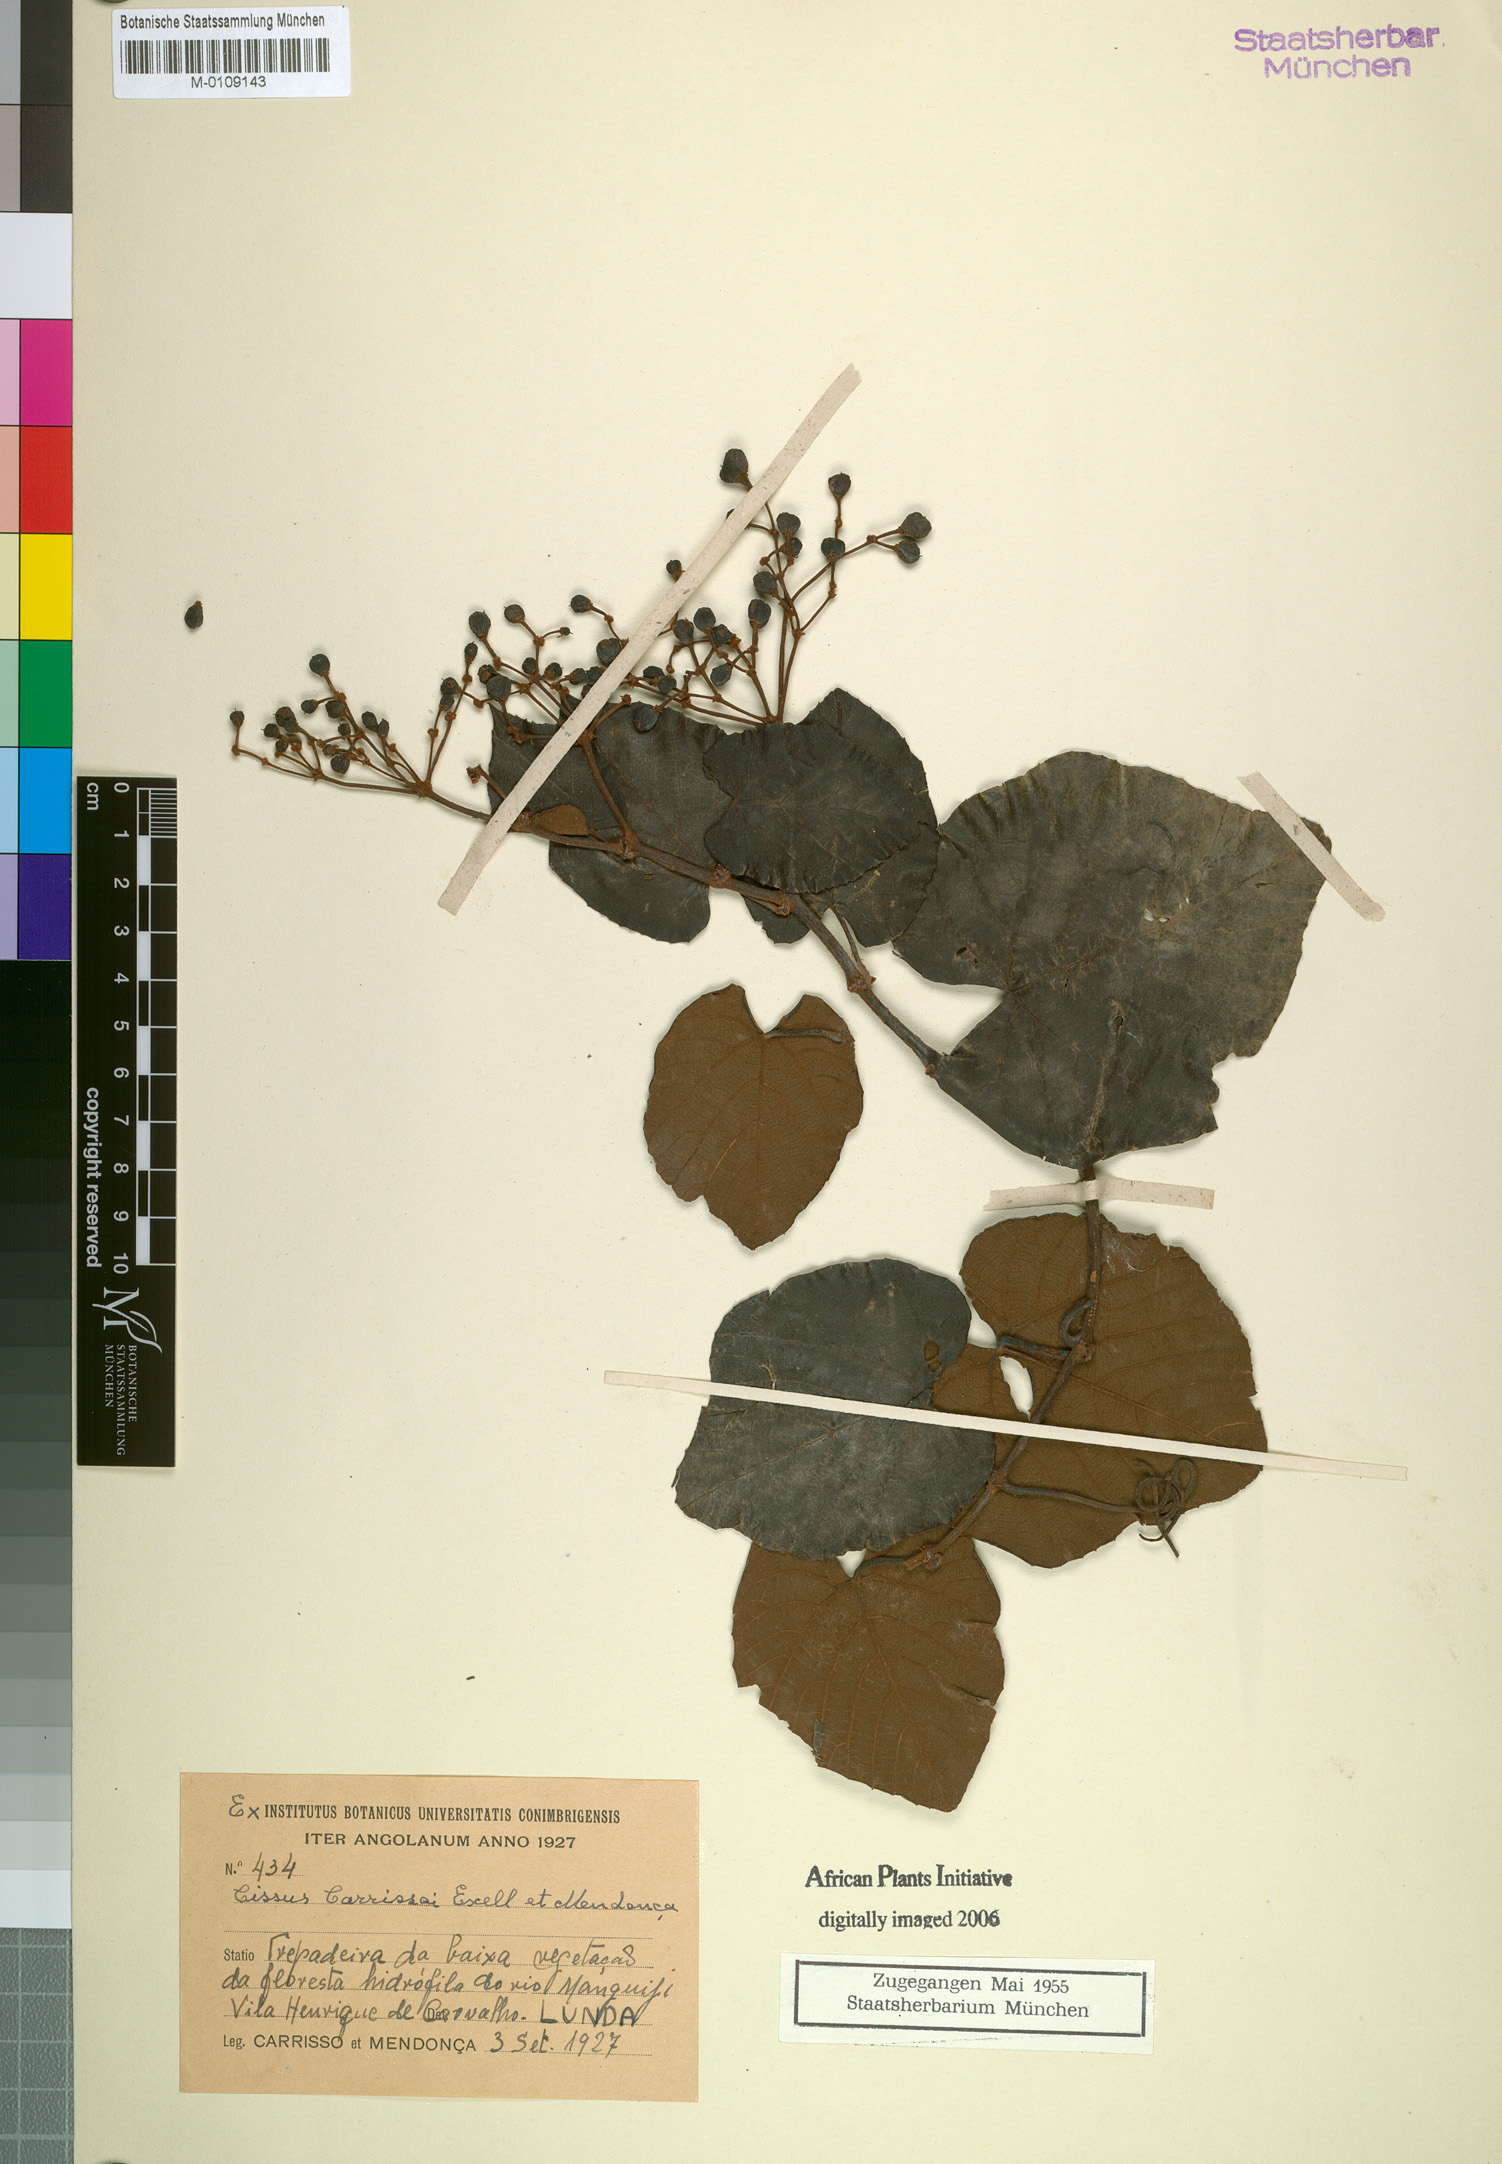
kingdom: Plantae
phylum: Tracheophyta
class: Magnoliopsida
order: Vitales
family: Vitaceae
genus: Cissus
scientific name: Cissus carrissoi
